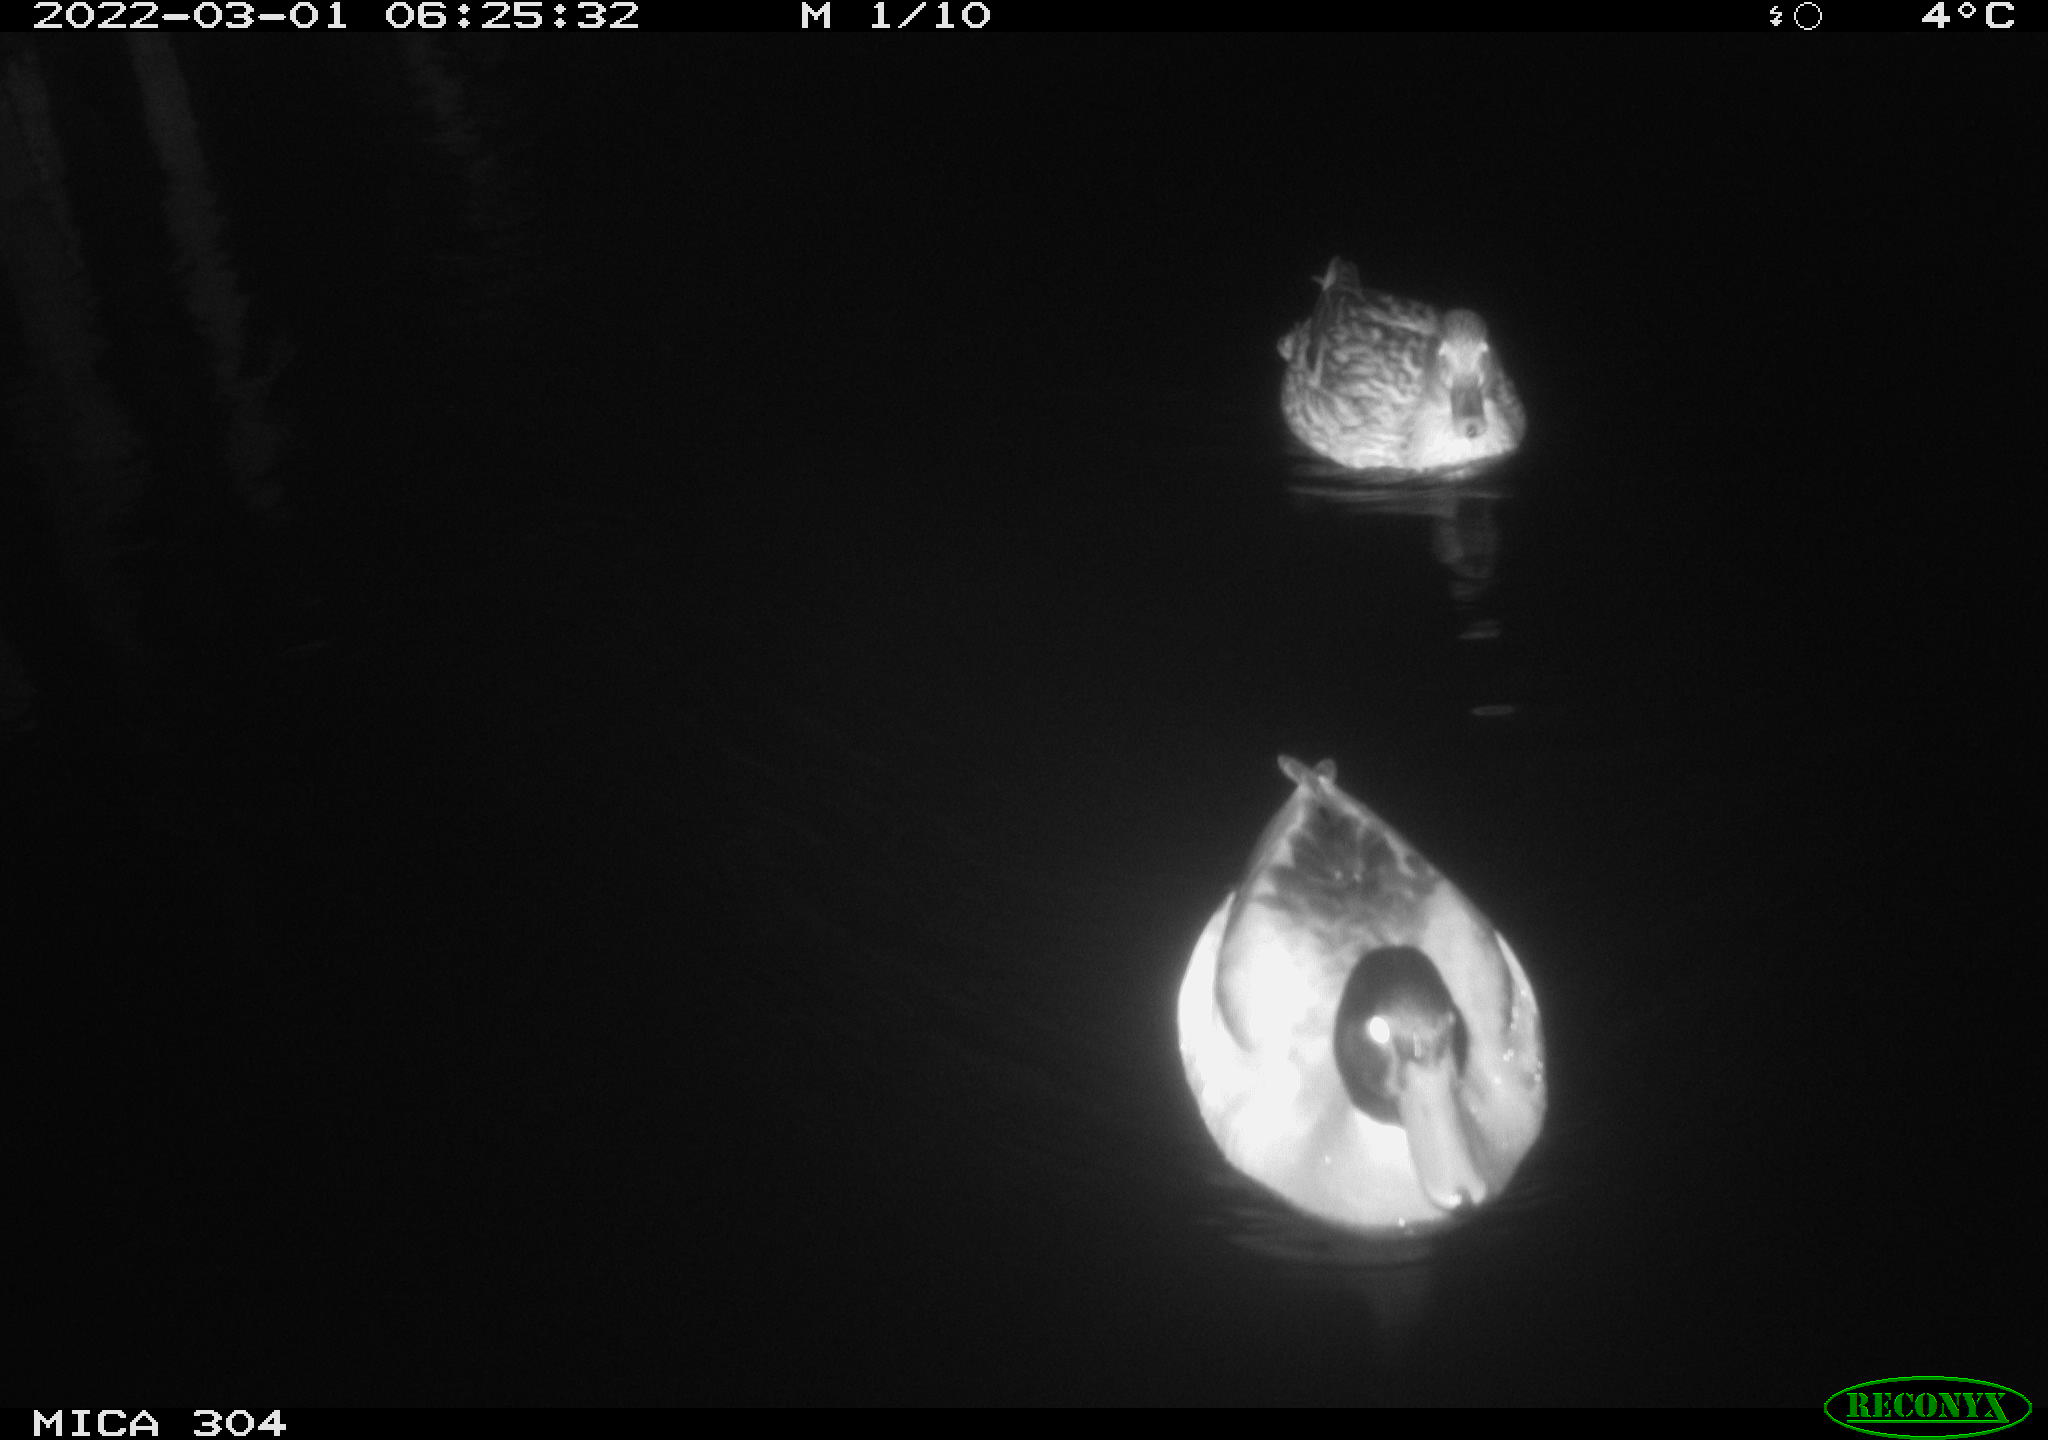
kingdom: Animalia
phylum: Chordata
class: Aves
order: Anseriformes
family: Anatidae
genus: Anas
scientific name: Anas platyrhynchos
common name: Mallard
